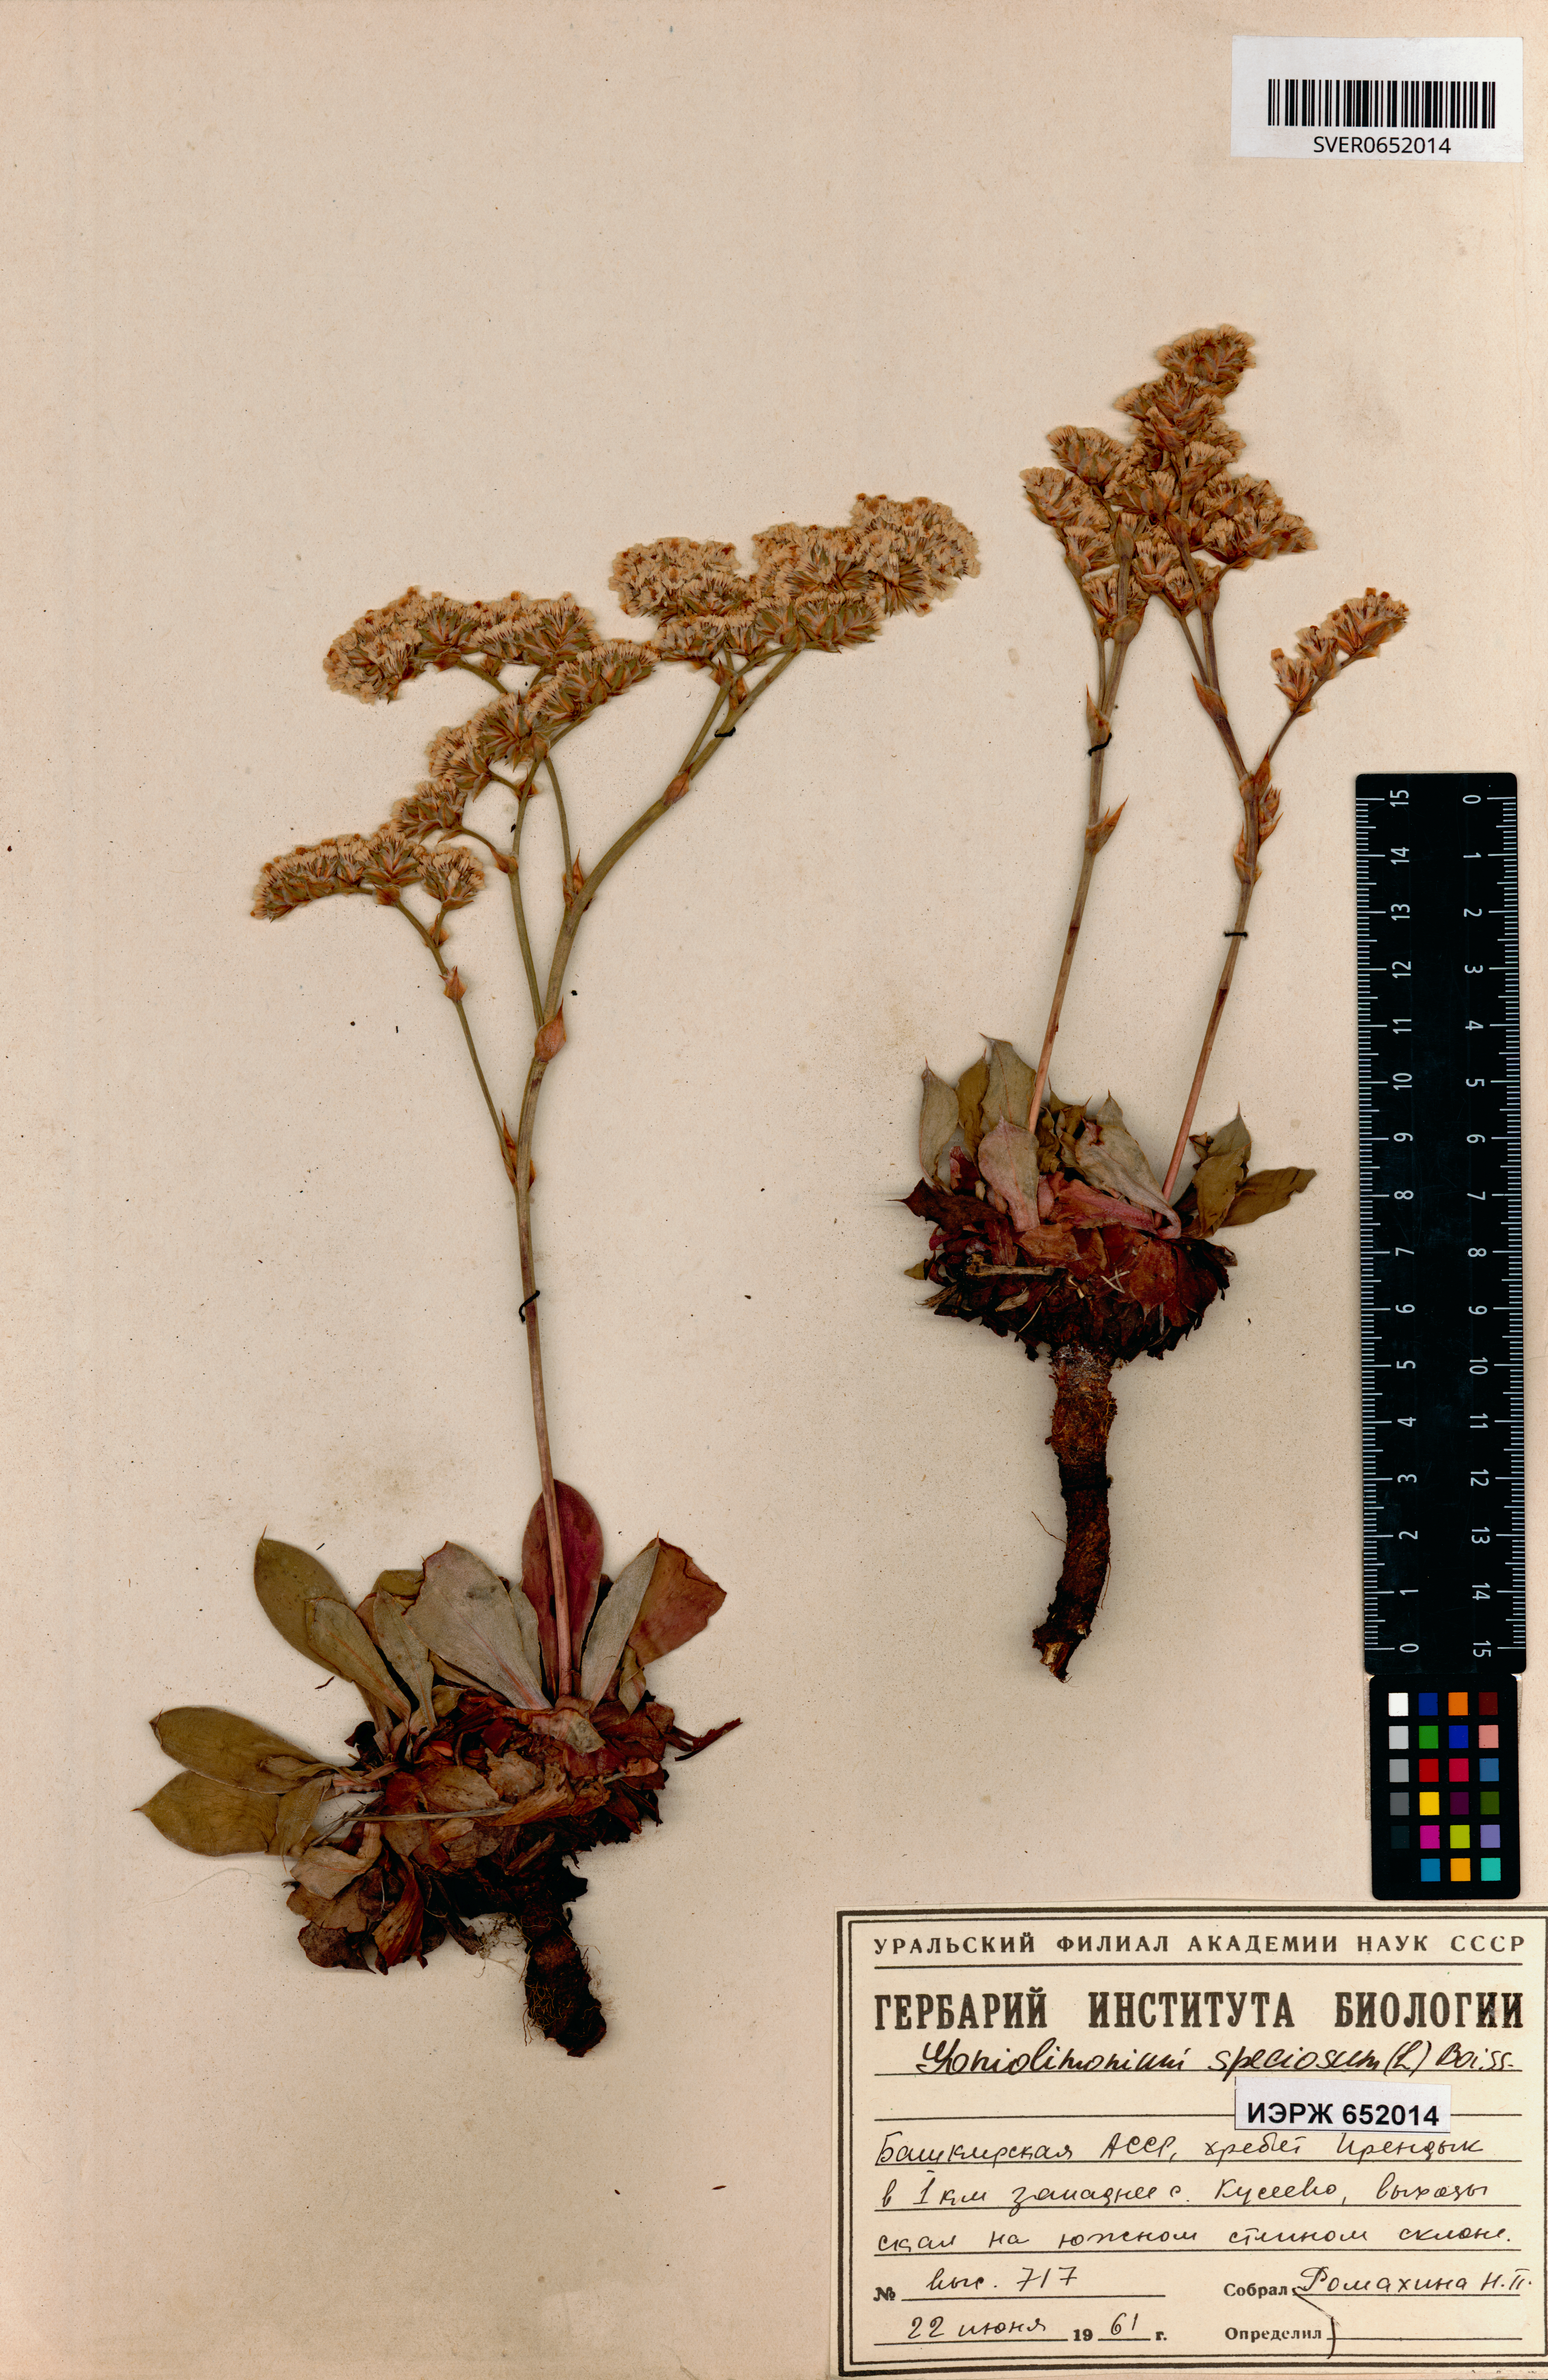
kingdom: Plantae
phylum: Tracheophyta
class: Magnoliopsida
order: Caryophyllales
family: Plumbaginaceae
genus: Goniolimon
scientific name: Goniolimon speciosum
